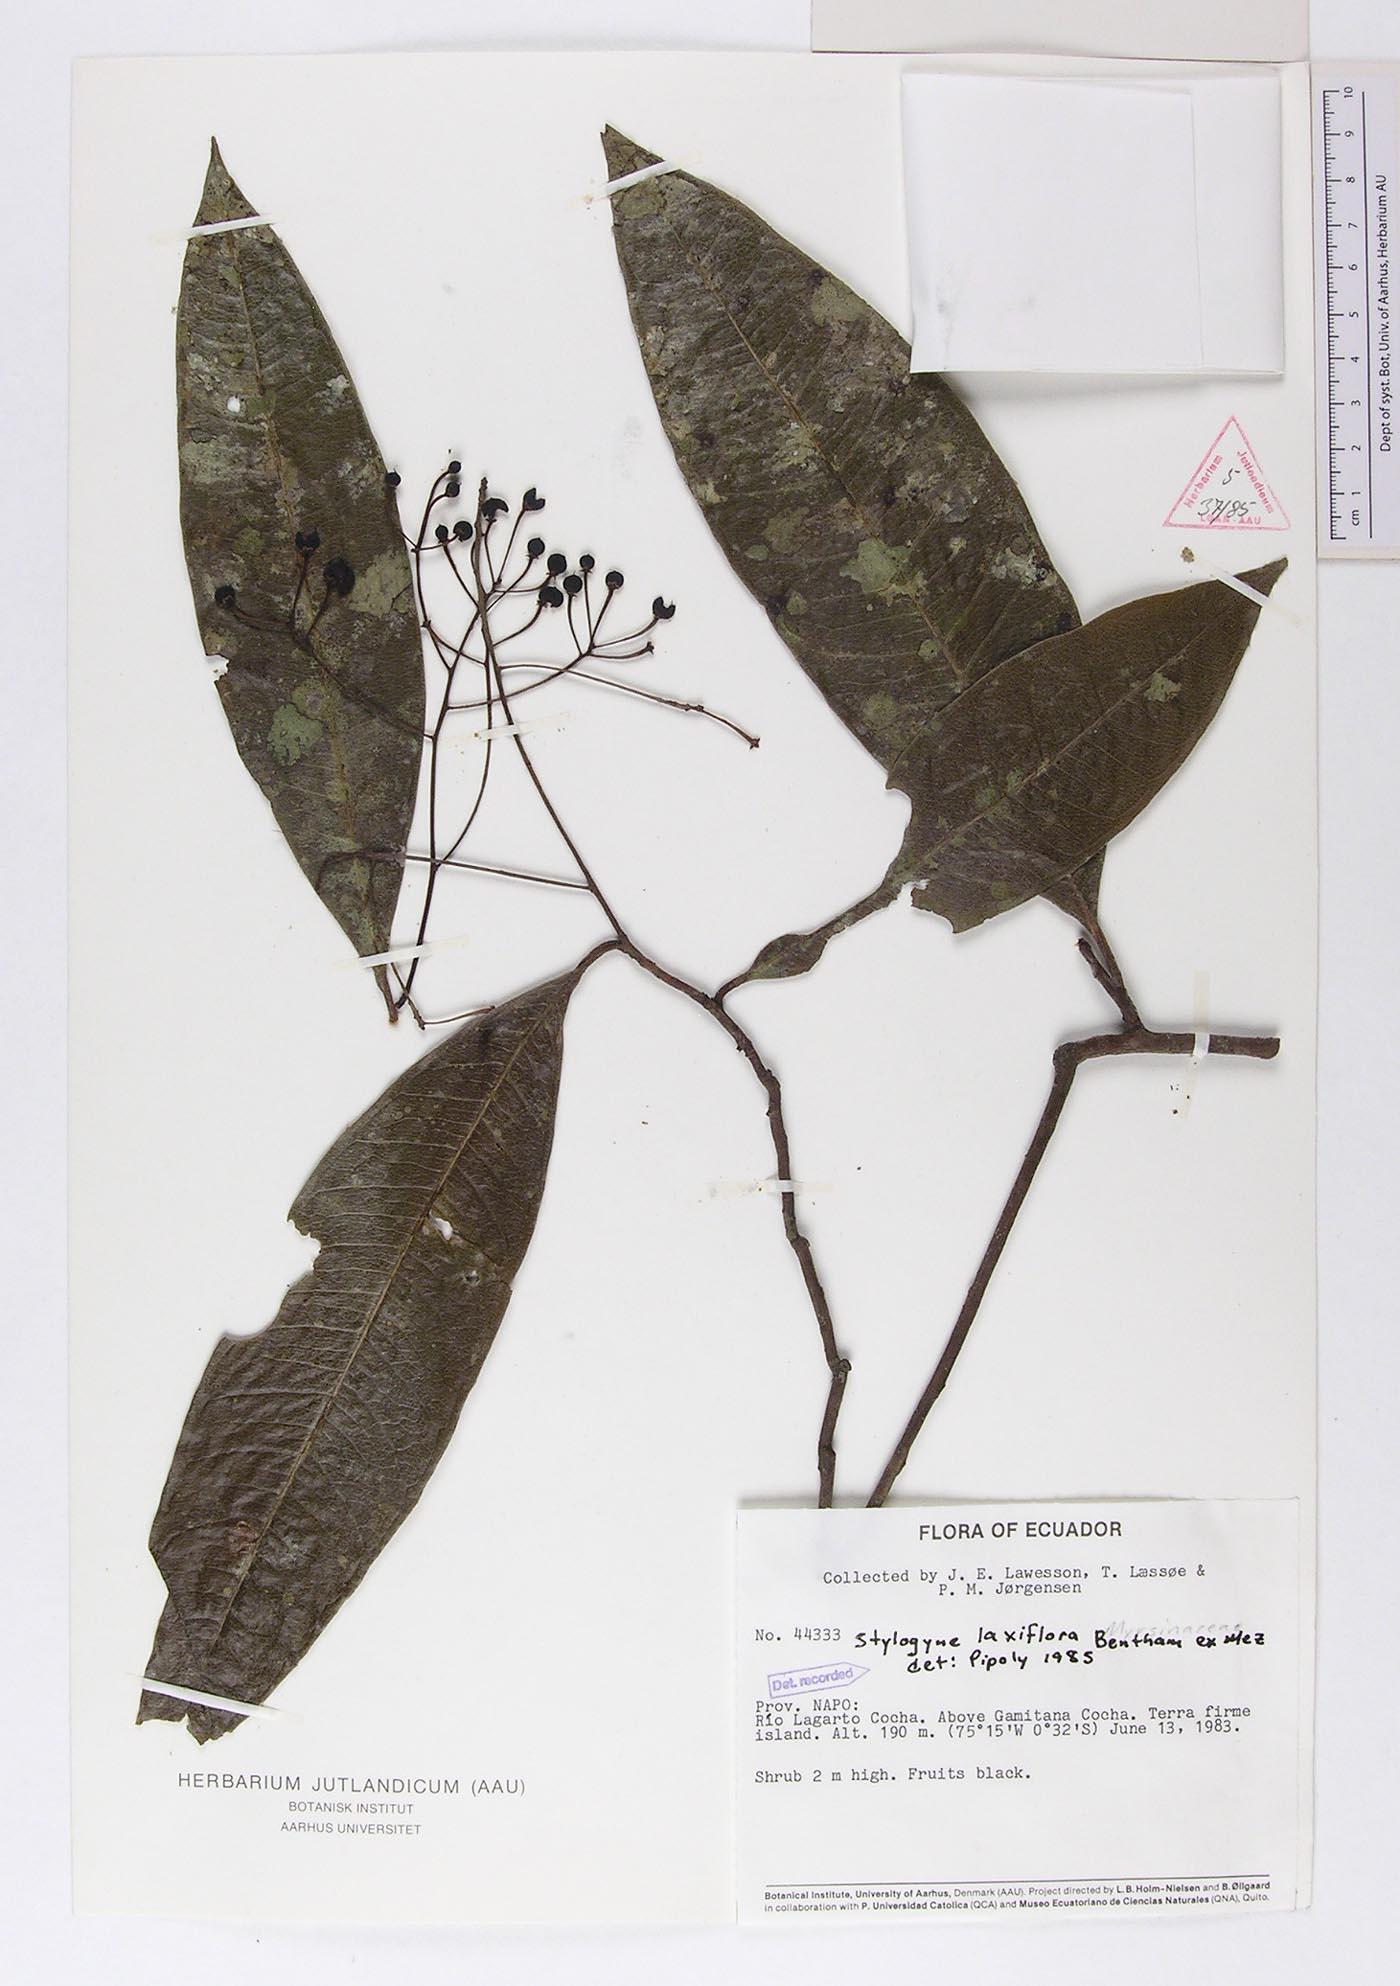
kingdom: Plantae
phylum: Tracheophyta
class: Magnoliopsida
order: Ericales
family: Primulaceae
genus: Stylogyne
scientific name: Stylogyne laxiflora
